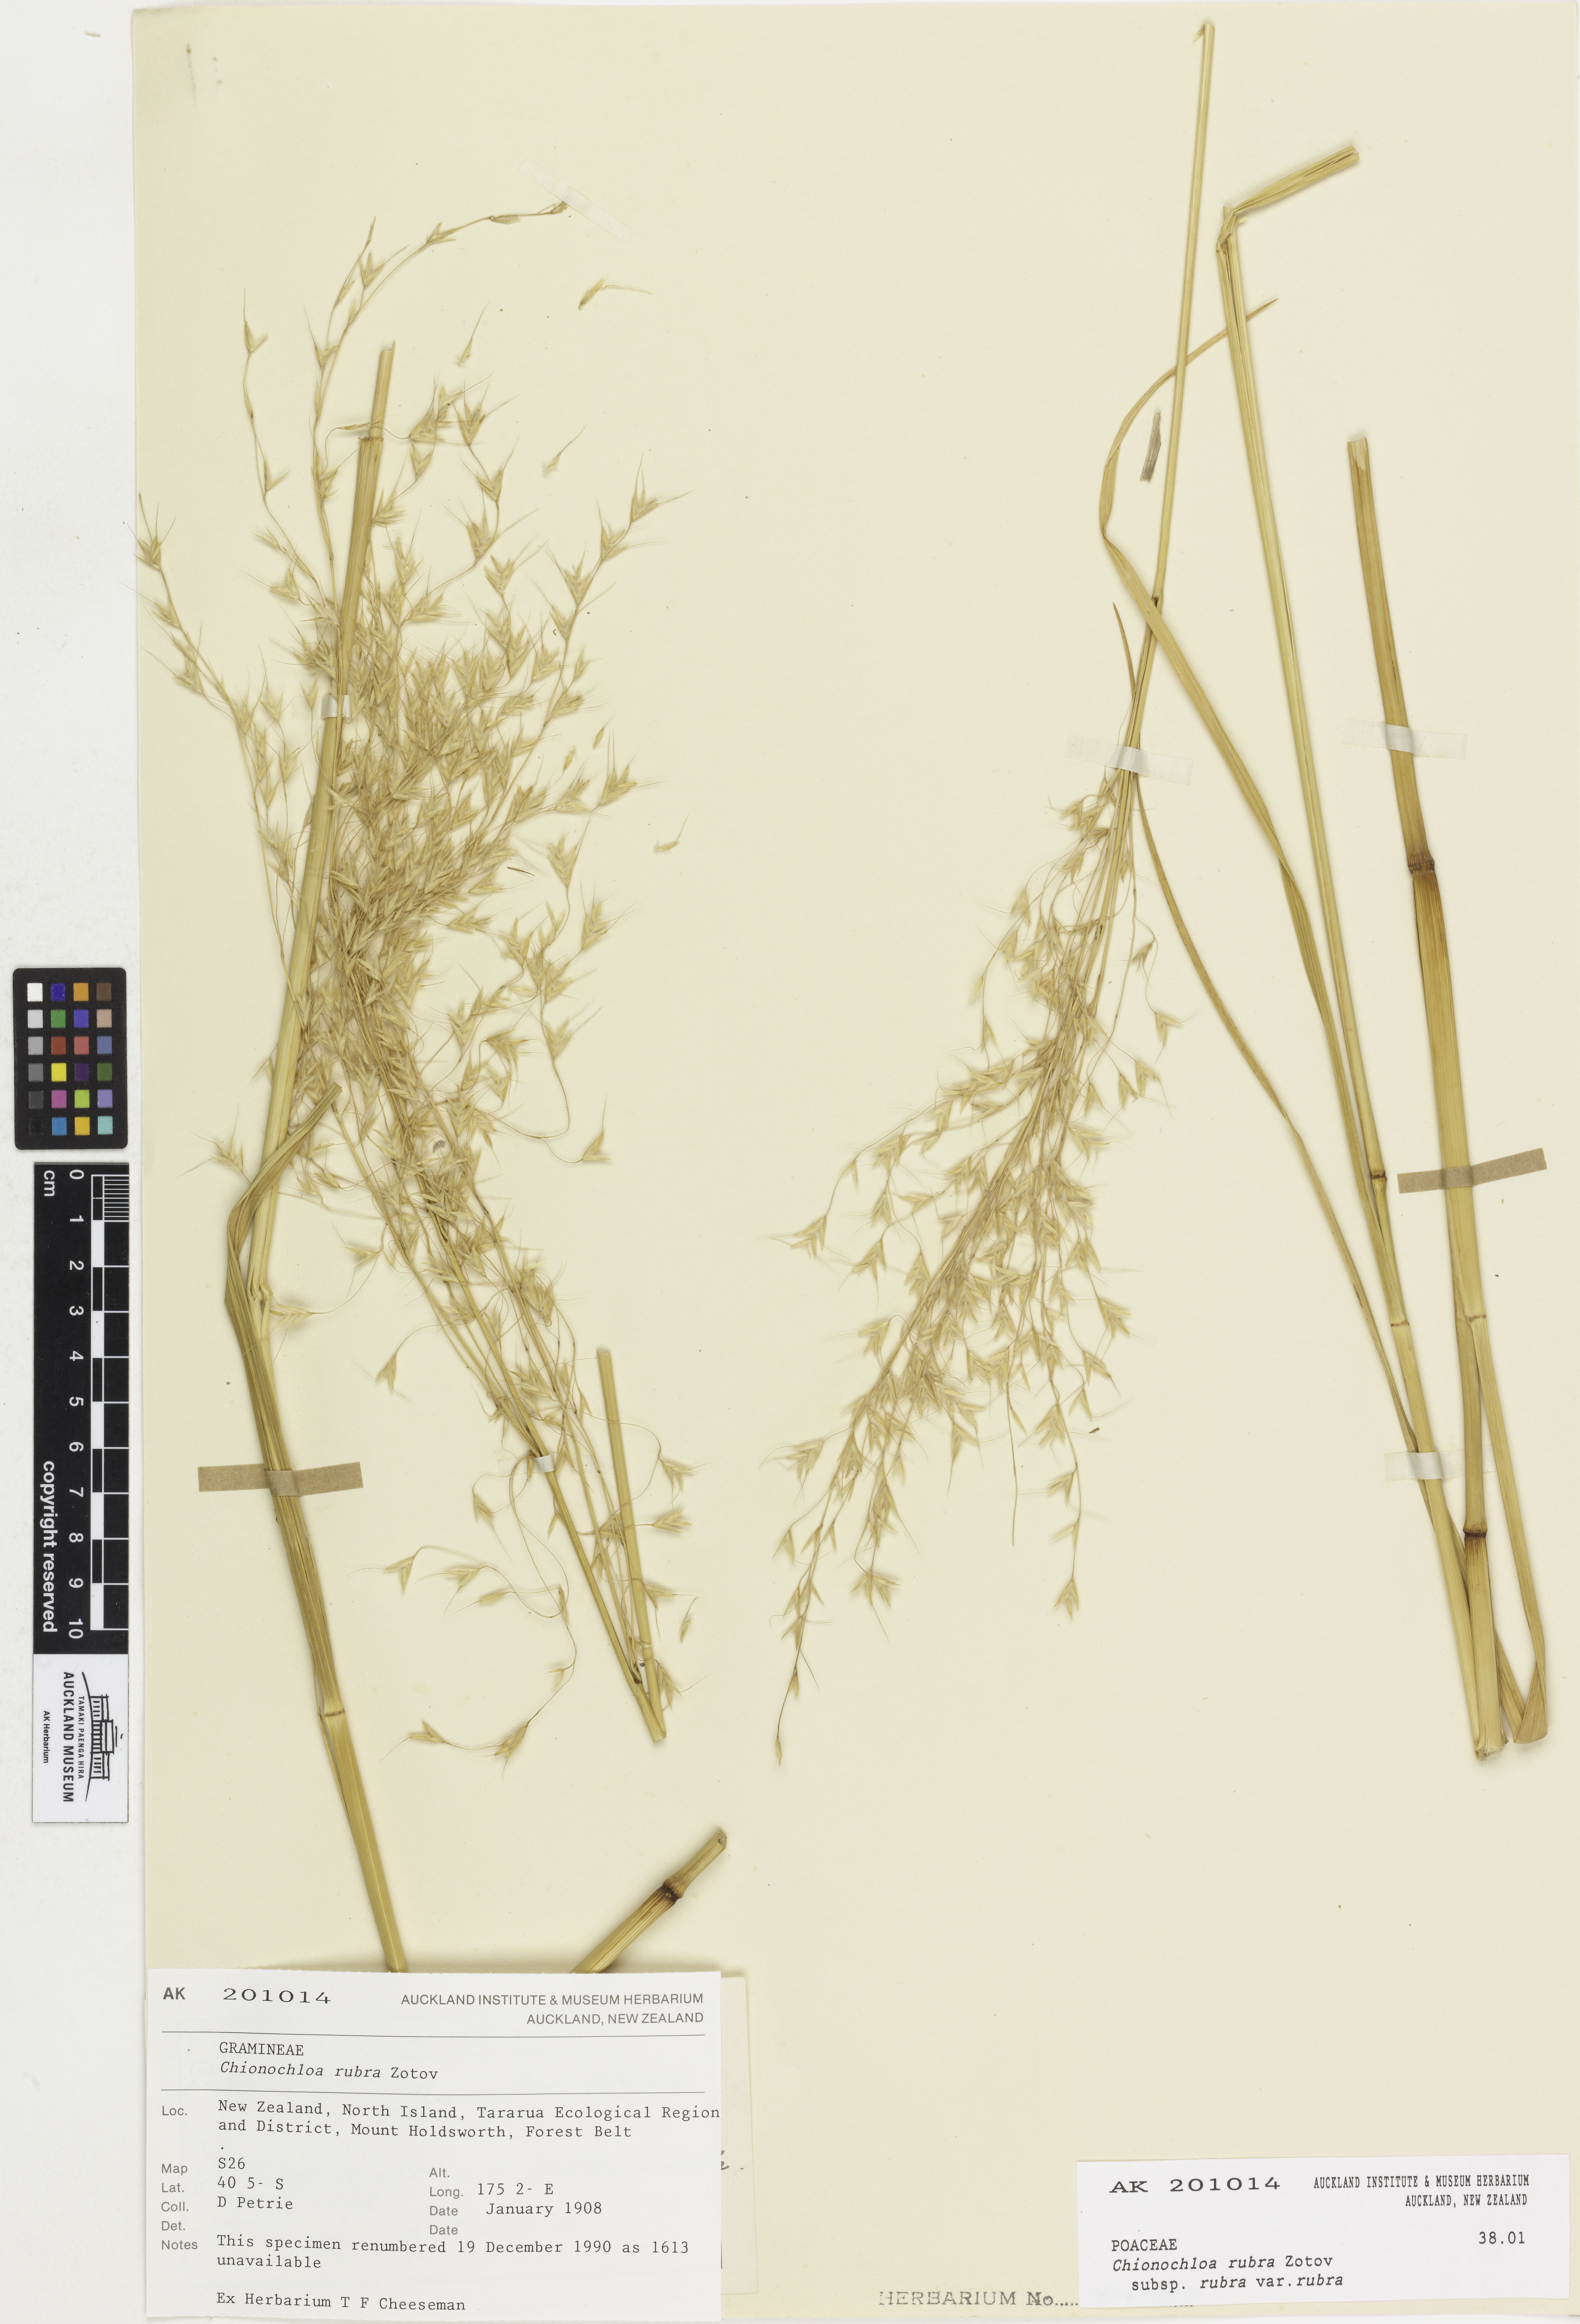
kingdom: Plantae
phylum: Tracheophyta
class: Liliopsida
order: Poales
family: Poaceae
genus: Chionochloa
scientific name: Chionochloa rubra
